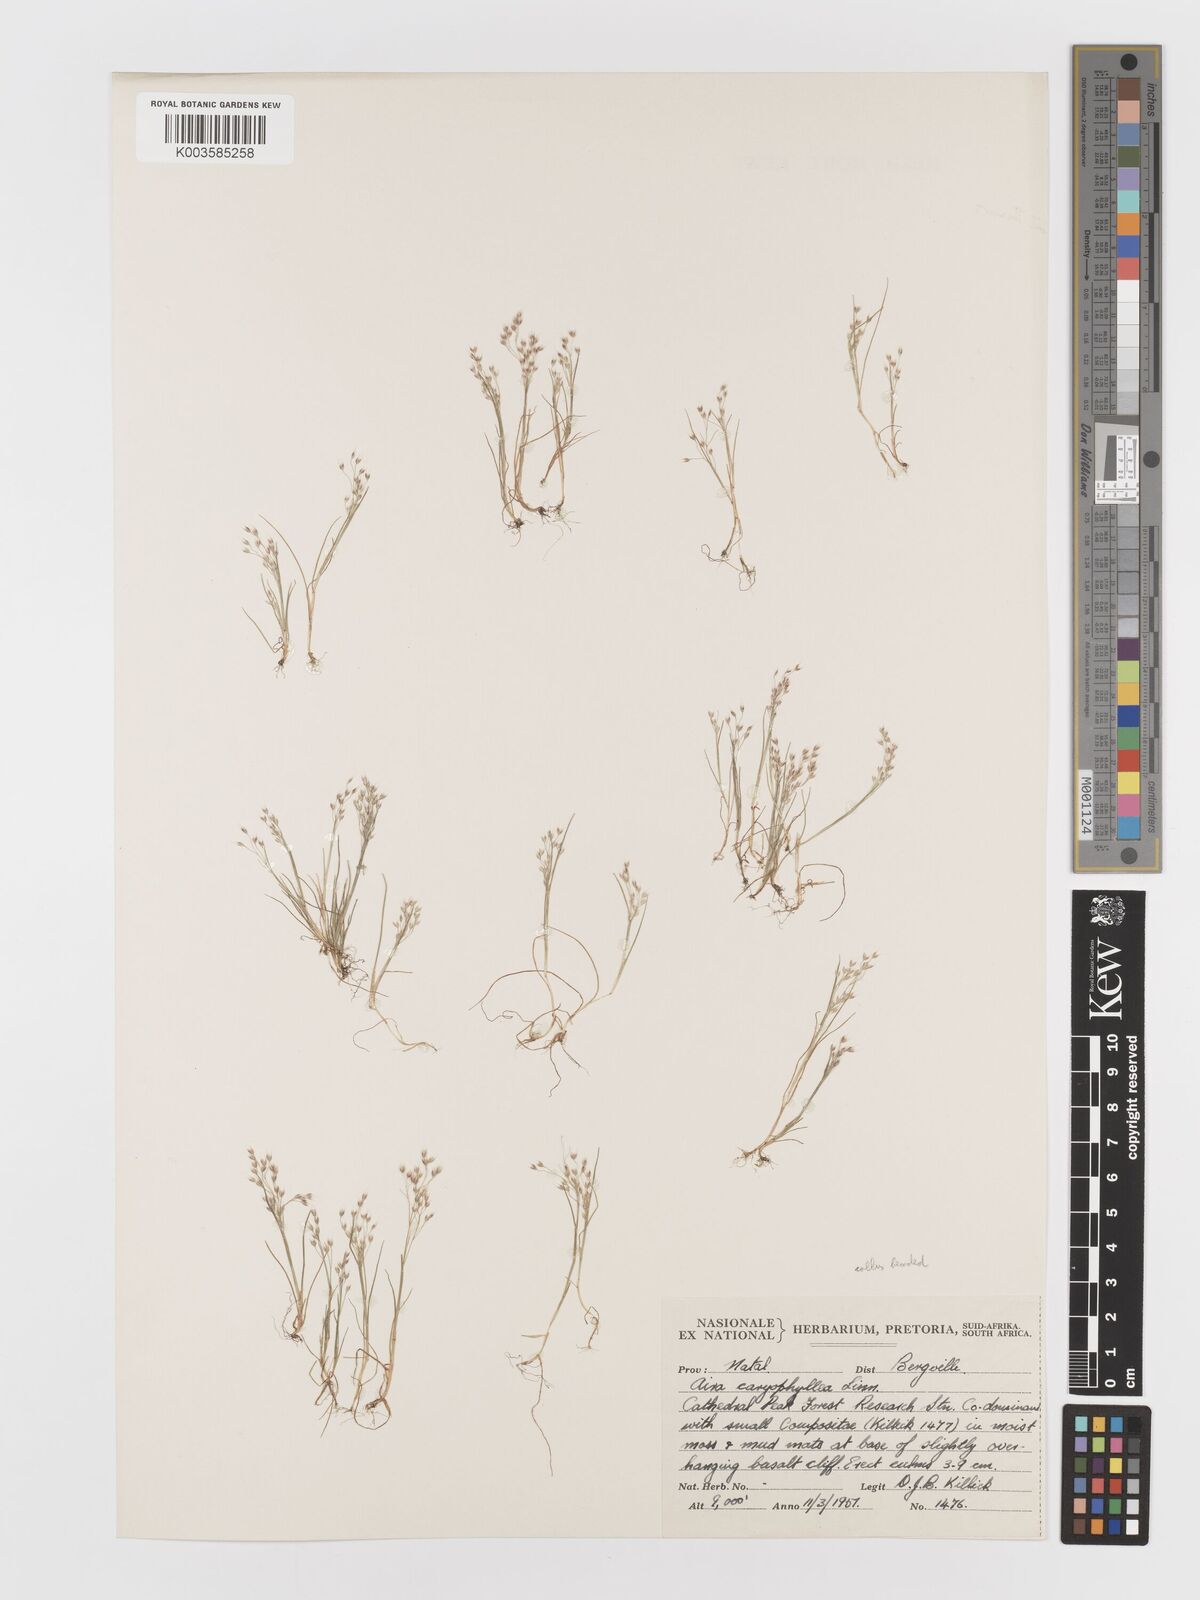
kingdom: Plantae
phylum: Tracheophyta
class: Liliopsida
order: Poales
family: Poaceae
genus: Aira
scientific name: Aira caryophyllea
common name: Silver hairgrass
